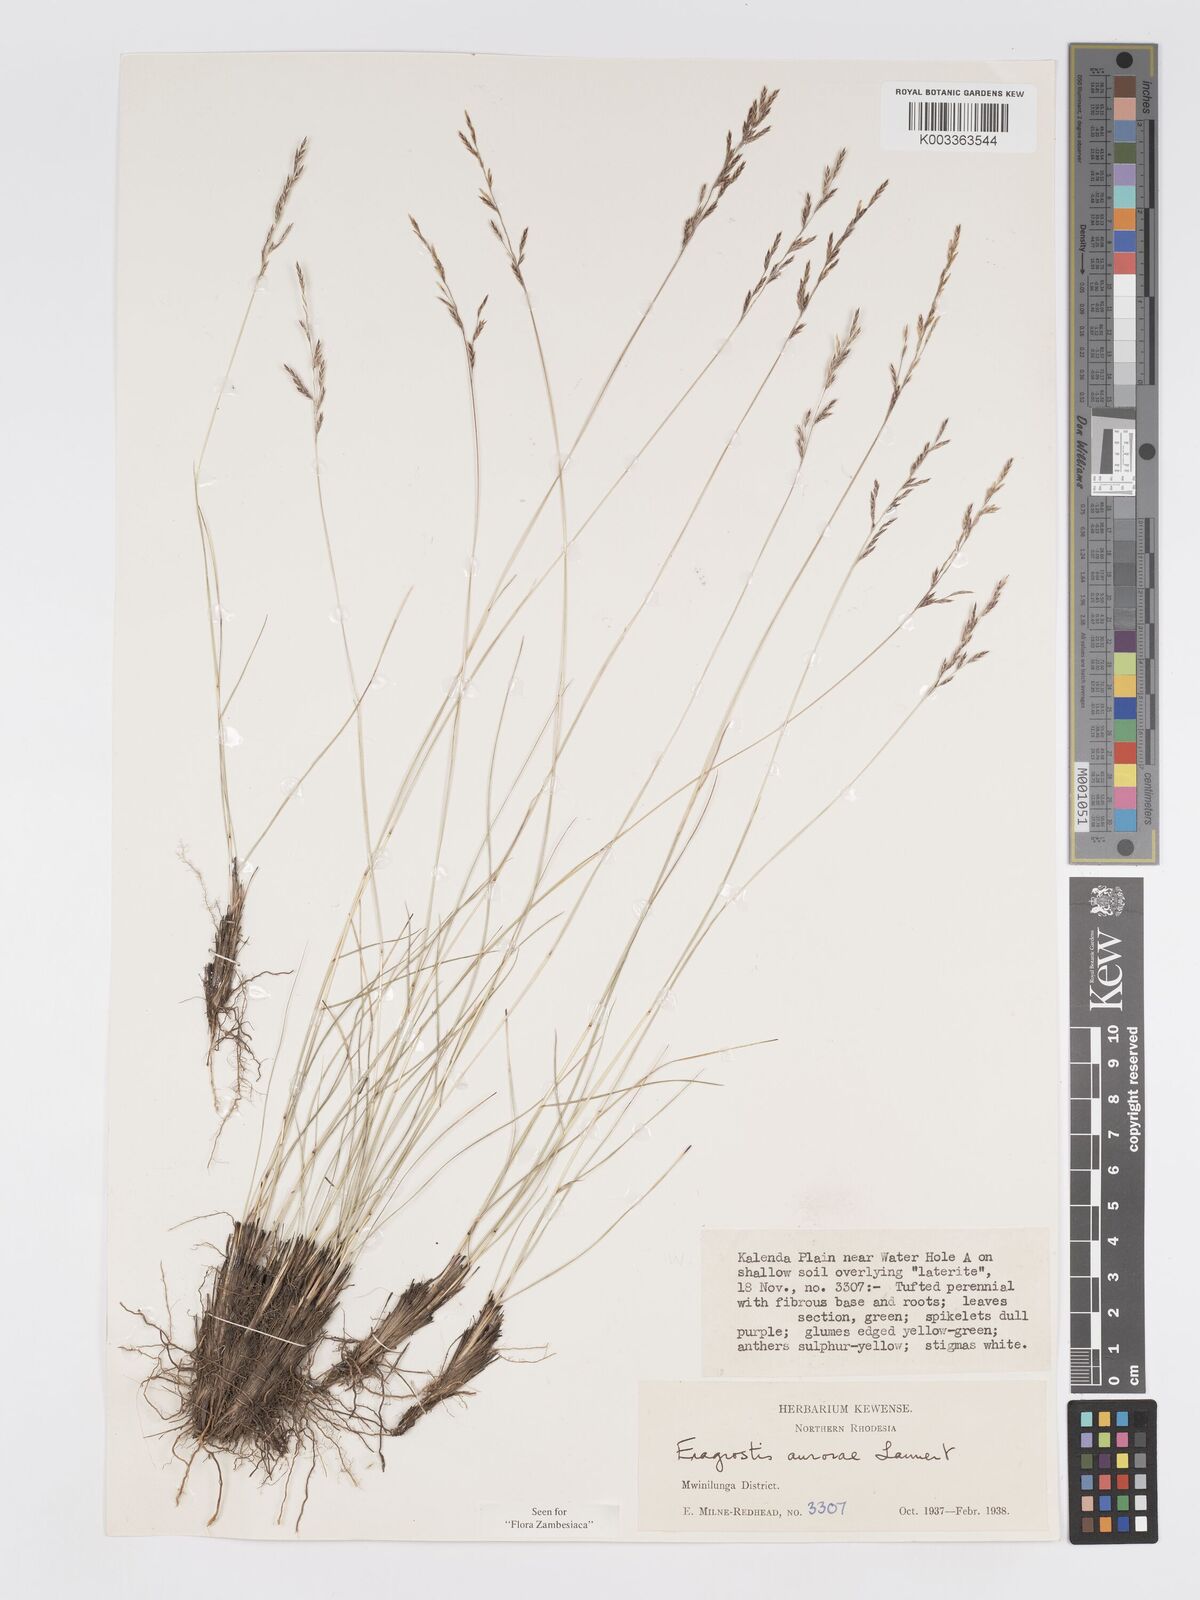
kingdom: Plantae
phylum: Tracheophyta
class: Liliopsida
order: Poales
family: Poaceae
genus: Eragrostis
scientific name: Eragrostis aurorae
